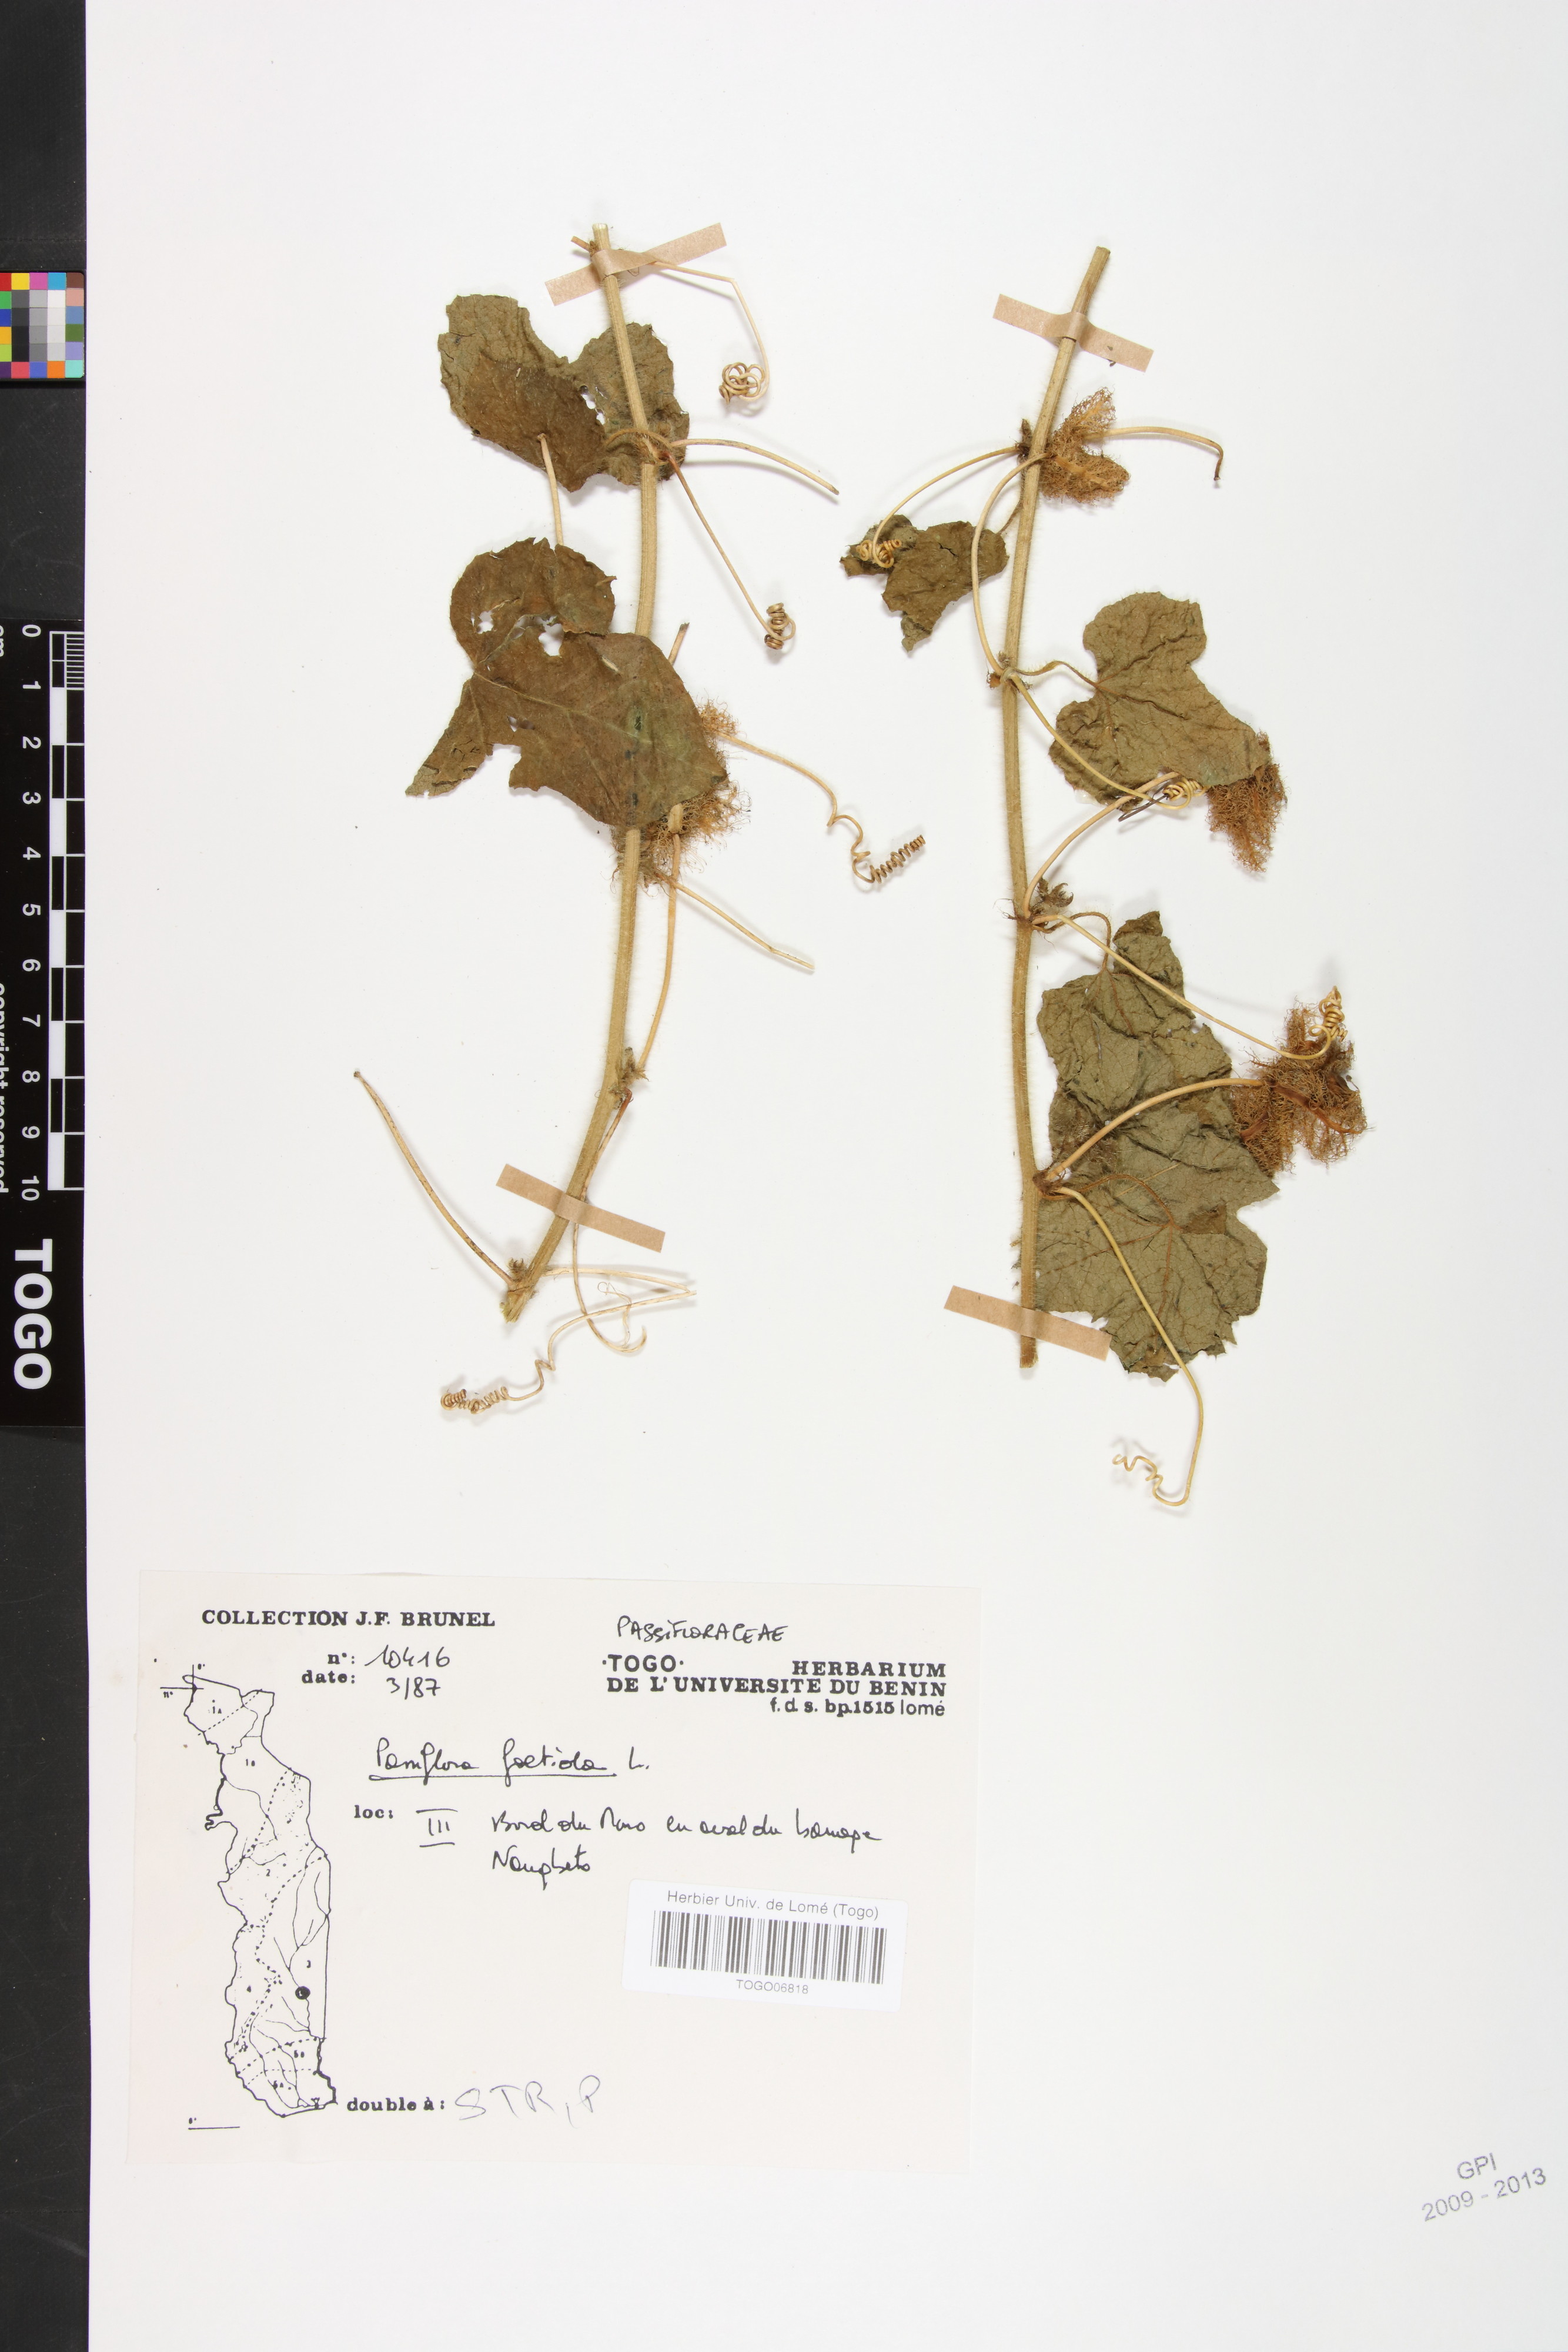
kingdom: Plantae
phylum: Tracheophyta
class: Magnoliopsida
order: Malpighiales
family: Passifloraceae
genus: Passiflora
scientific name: Passiflora foetida
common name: Fetid passionflower
